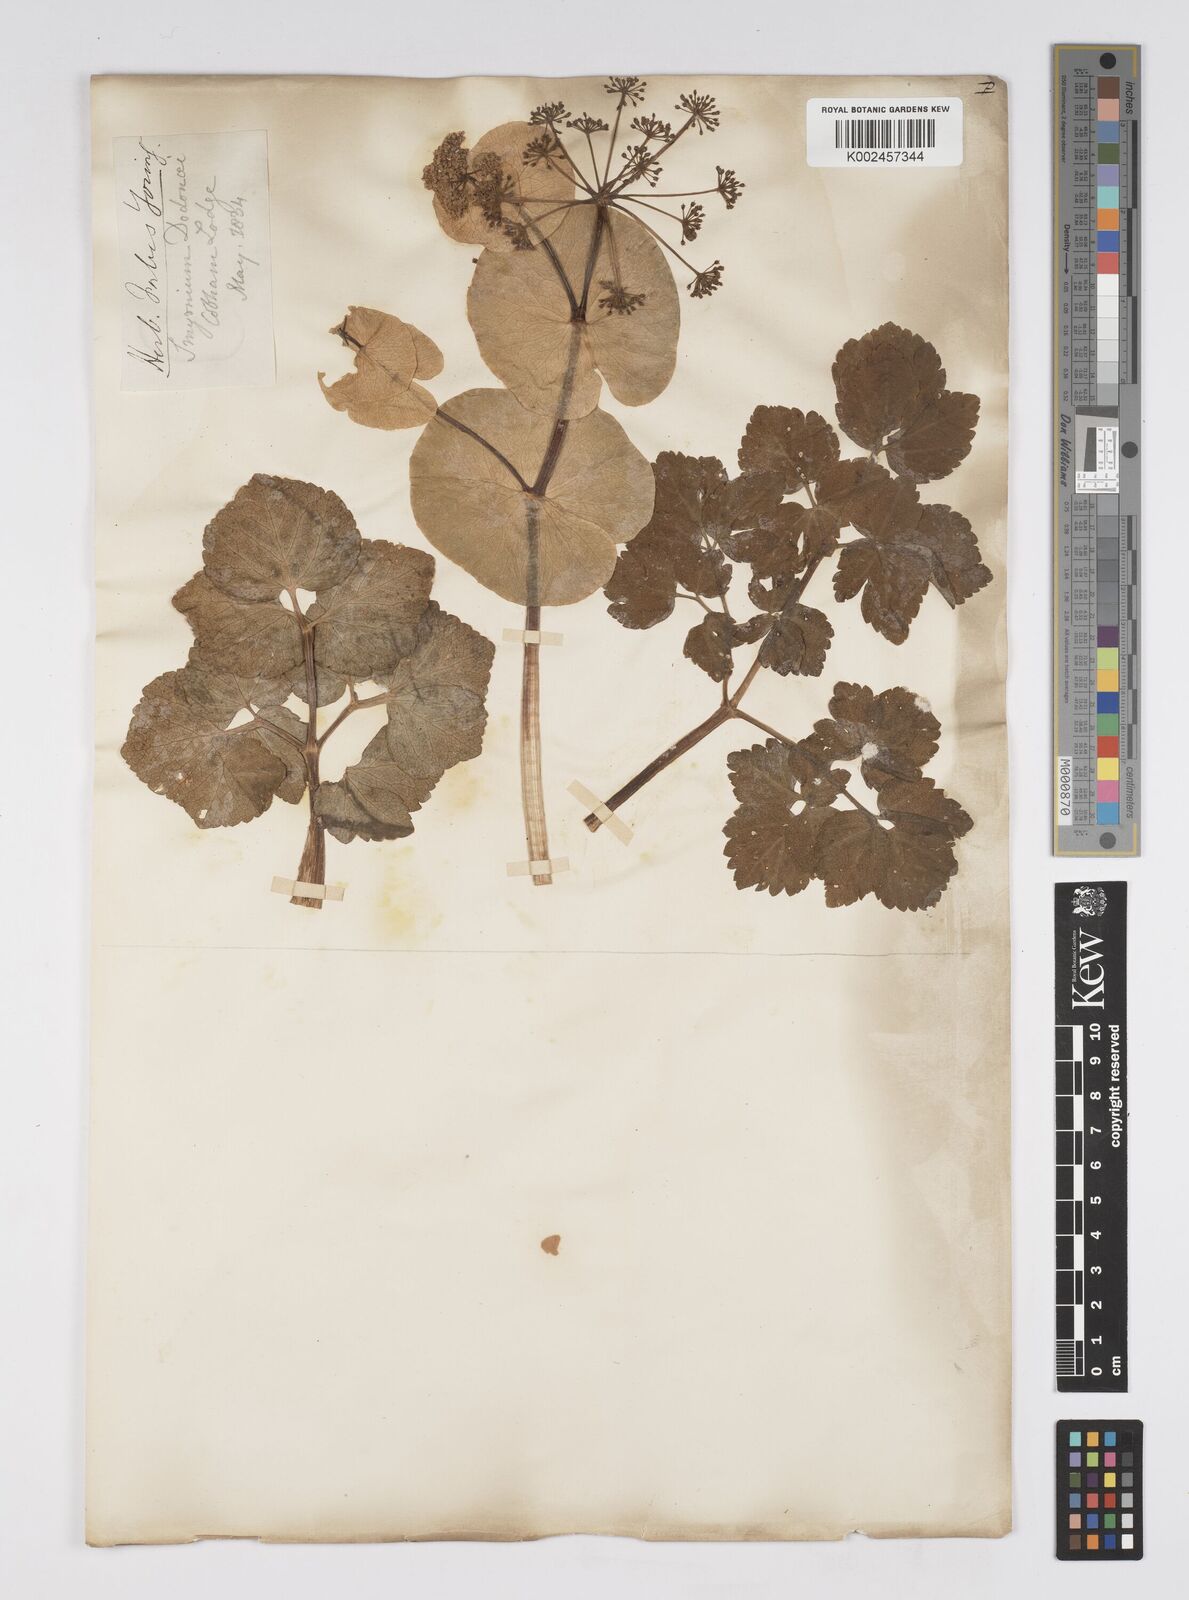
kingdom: Plantae
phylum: Tracheophyta
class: Magnoliopsida
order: Apiales
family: Apiaceae
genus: Smyrnium
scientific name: Smyrnium perfoliatum
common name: Perfoliate alexanders
